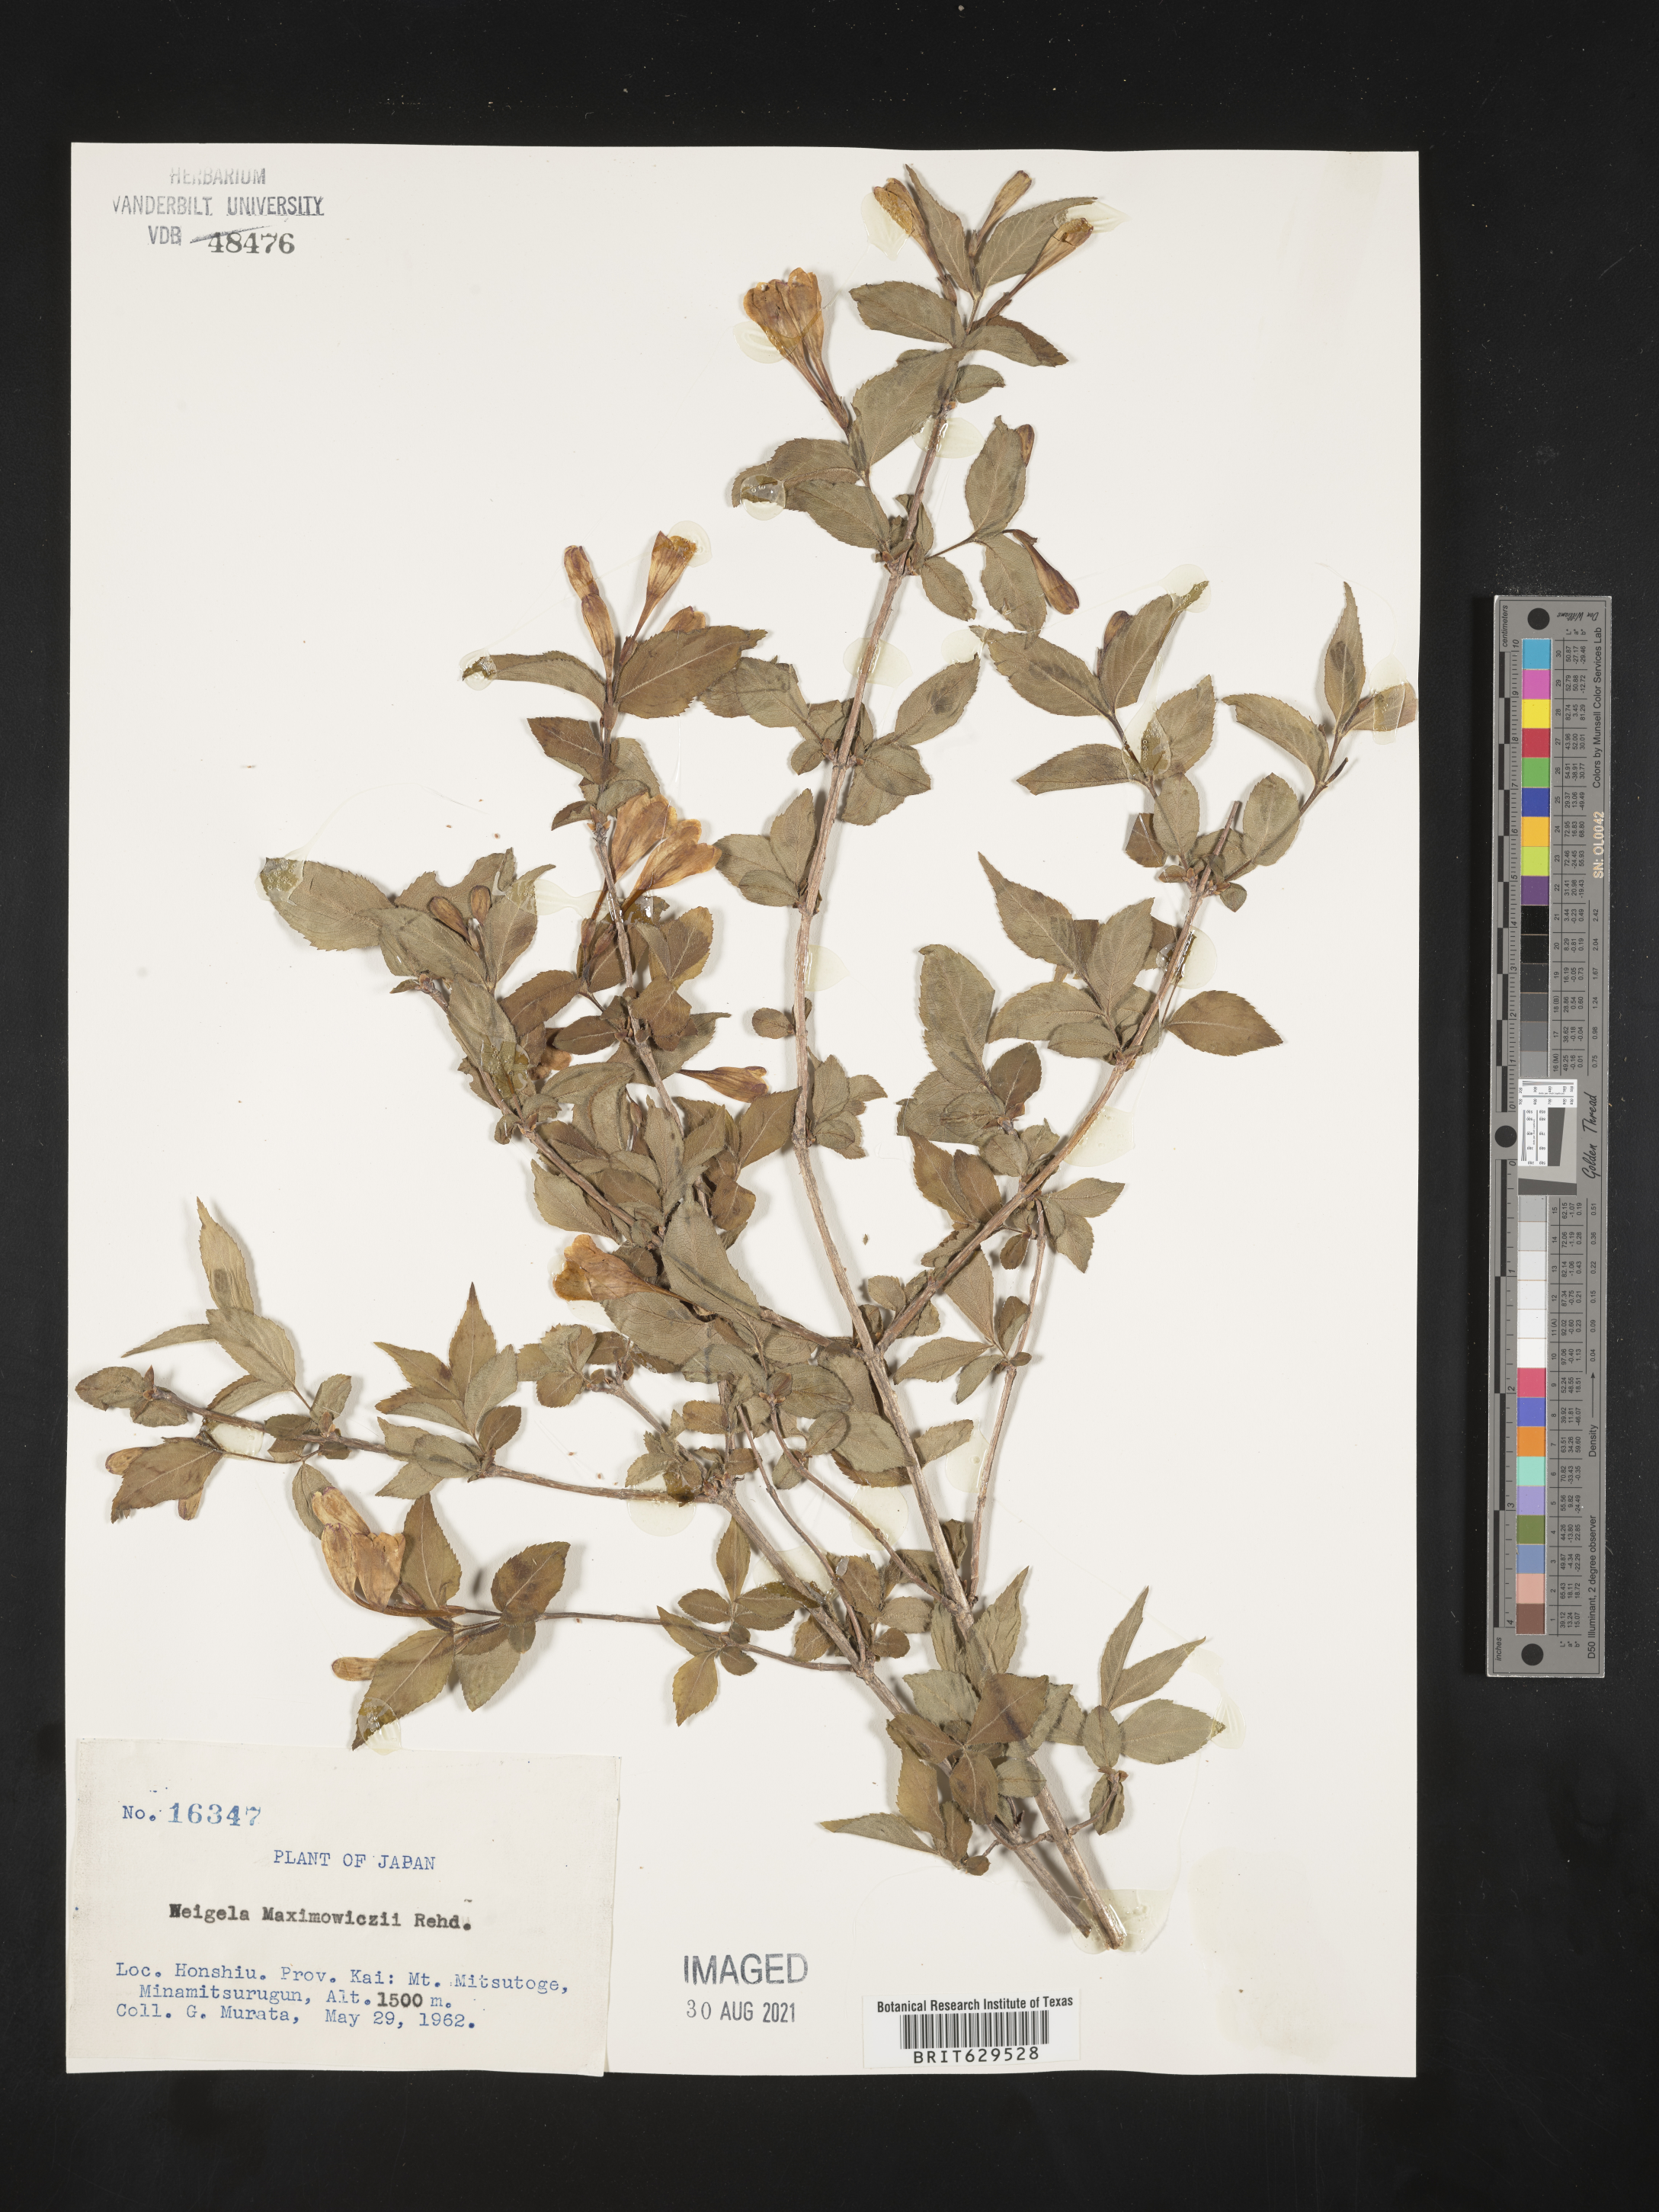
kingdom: Plantae
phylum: Tracheophyta
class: Magnoliopsida
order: Dipsacales
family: Caprifoliaceae
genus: Weigela
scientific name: Weigela maximowiczii
